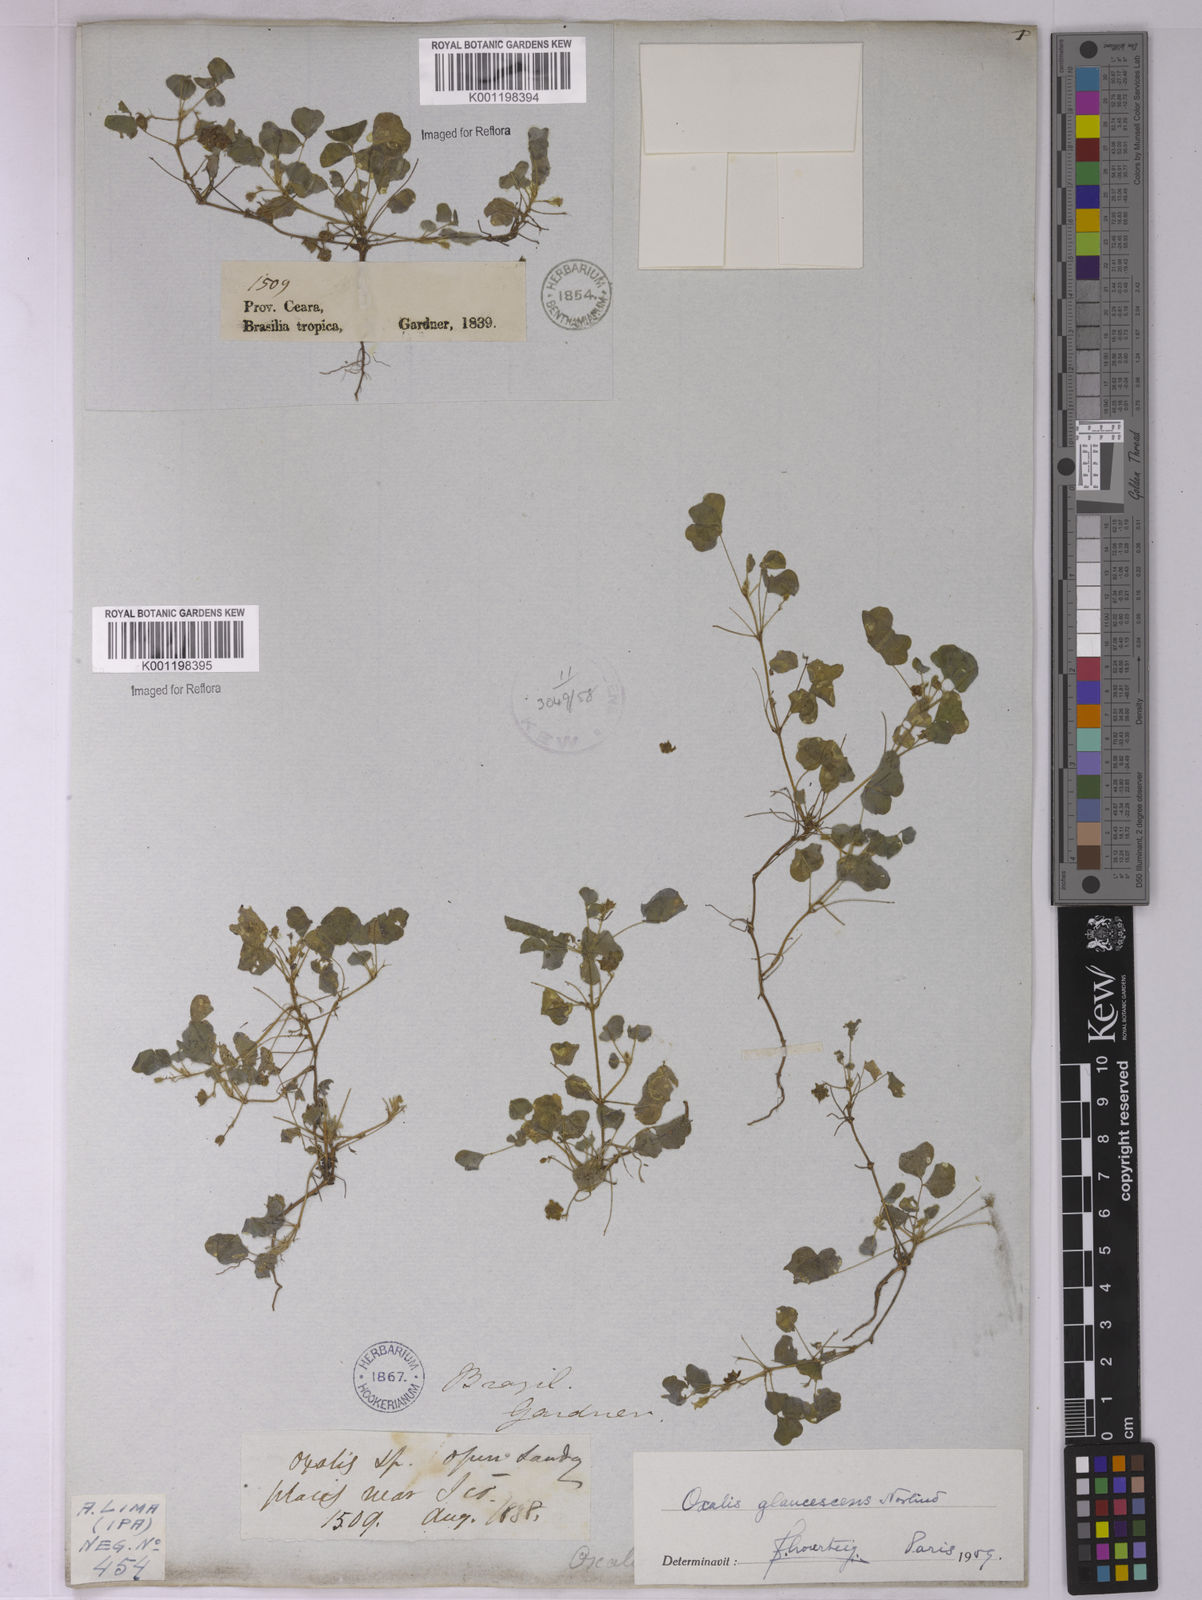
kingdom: Plantae
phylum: Tracheophyta
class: Magnoliopsida
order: Oxalidales
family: Oxalidaceae
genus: Oxalis
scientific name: Oxalis glaucescens
